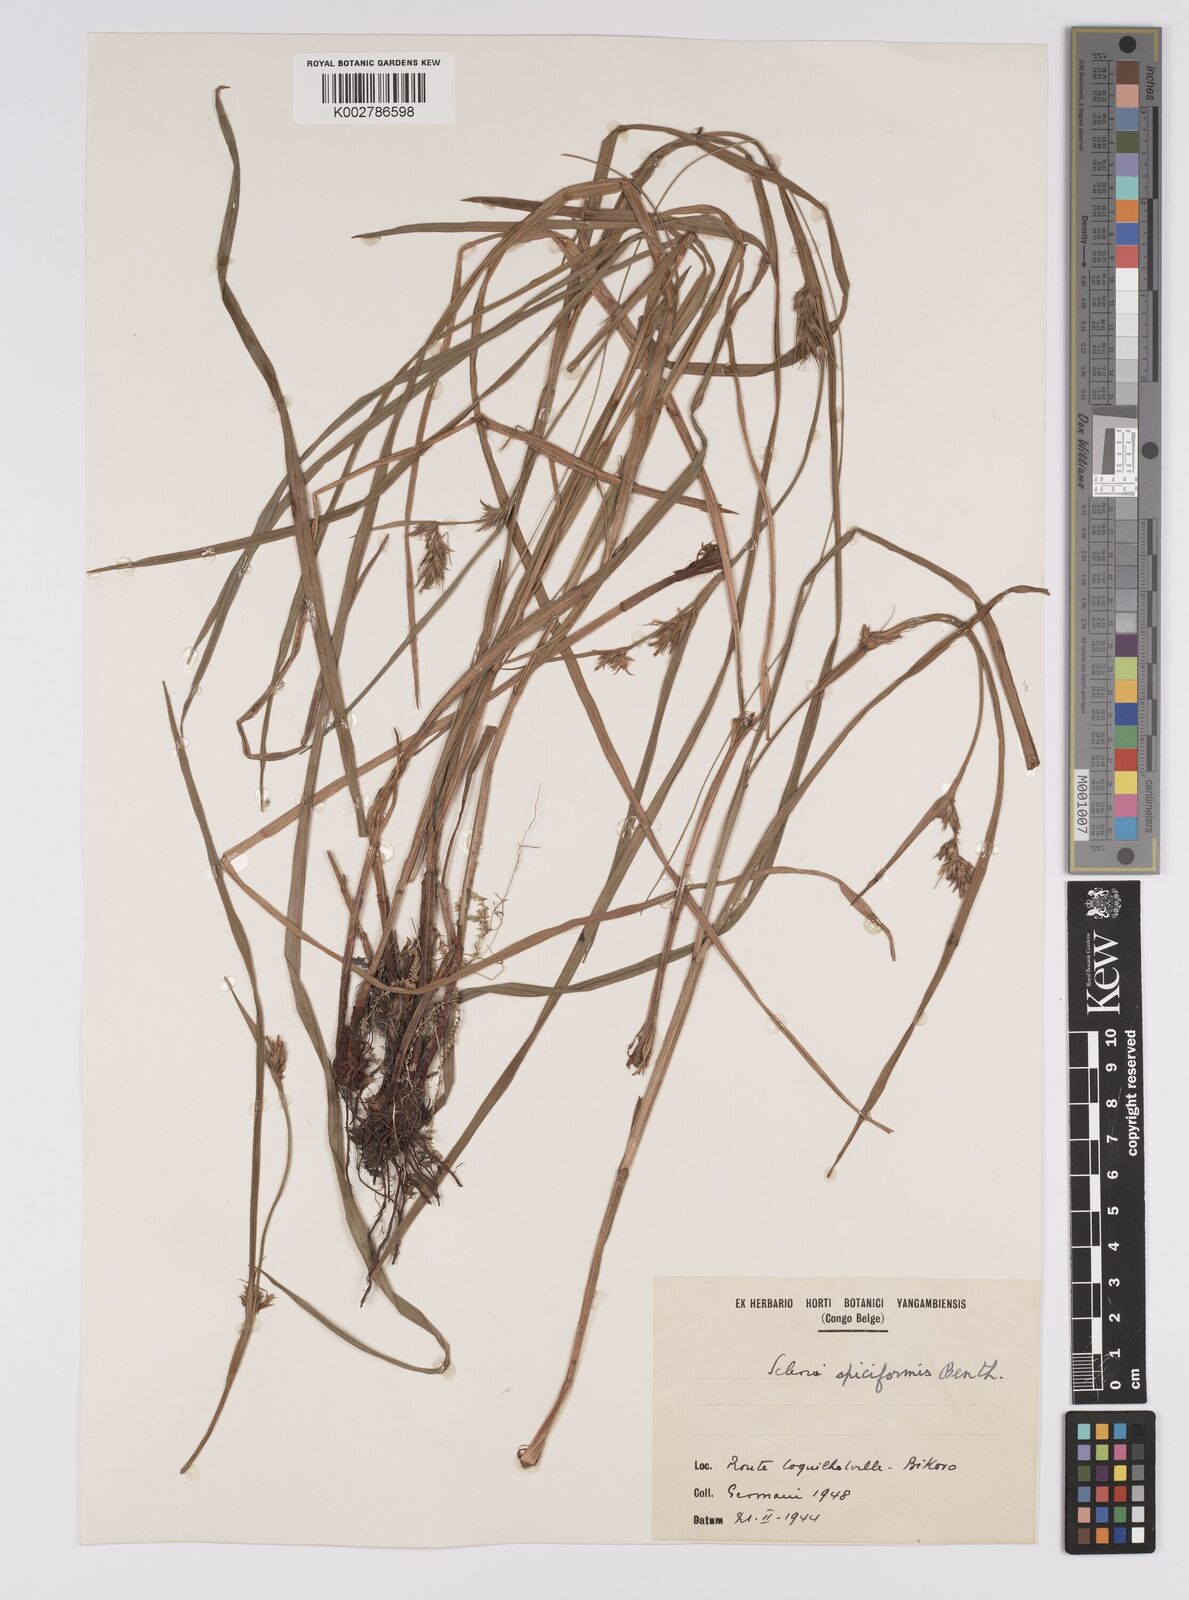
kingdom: Plantae
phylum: Tracheophyta
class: Liliopsida
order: Poales
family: Cyperaceae
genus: Scleria
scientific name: Scleria spiciformis
